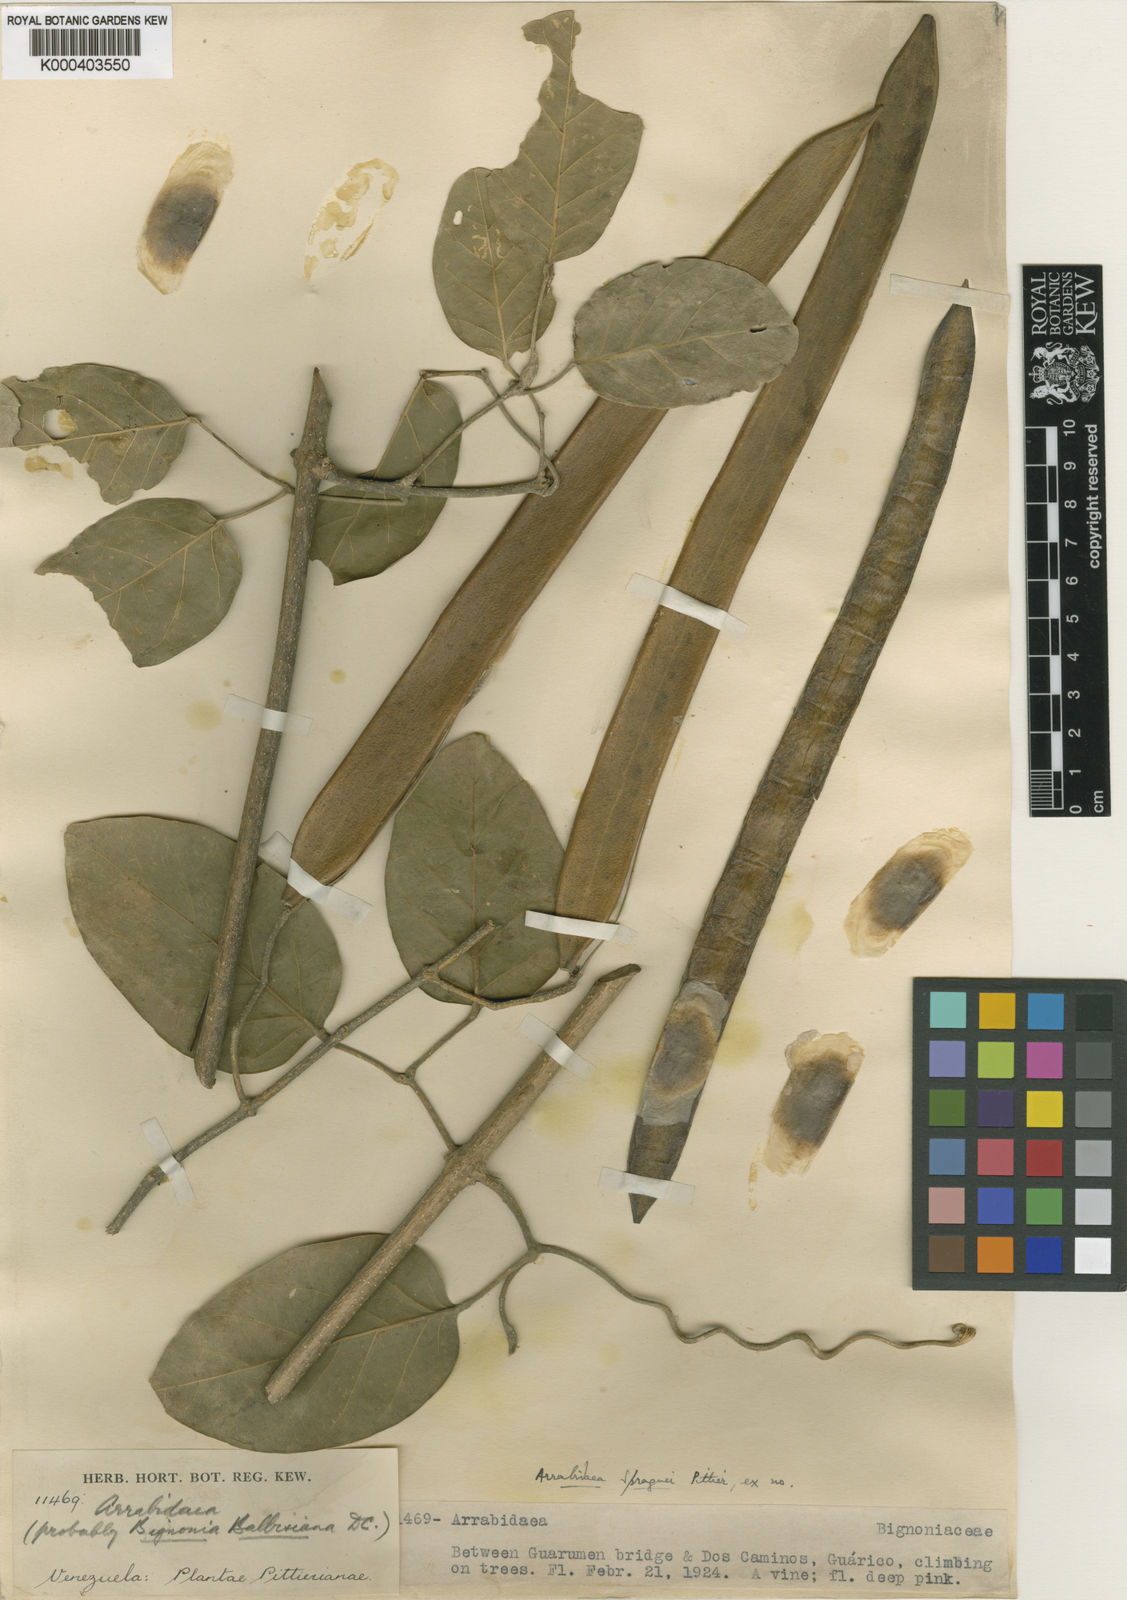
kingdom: Plantae
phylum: Tracheophyta
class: Magnoliopsida
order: Lamiales
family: Bignoniaceae
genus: Tanaecium
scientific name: Tanaecium
